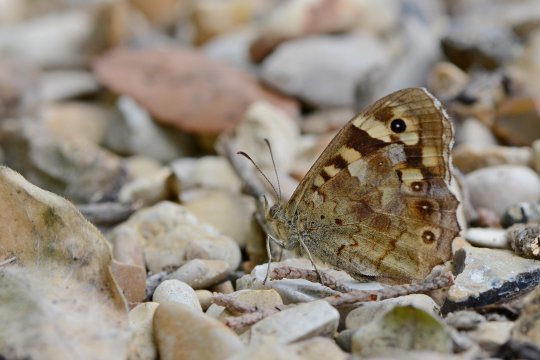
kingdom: Animalia
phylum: Arthropoda
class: Insecta
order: Lepidoptera
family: Nymphalidae
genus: Pararge
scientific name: Pararge aegeria
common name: Speckled Wood Butterfly
